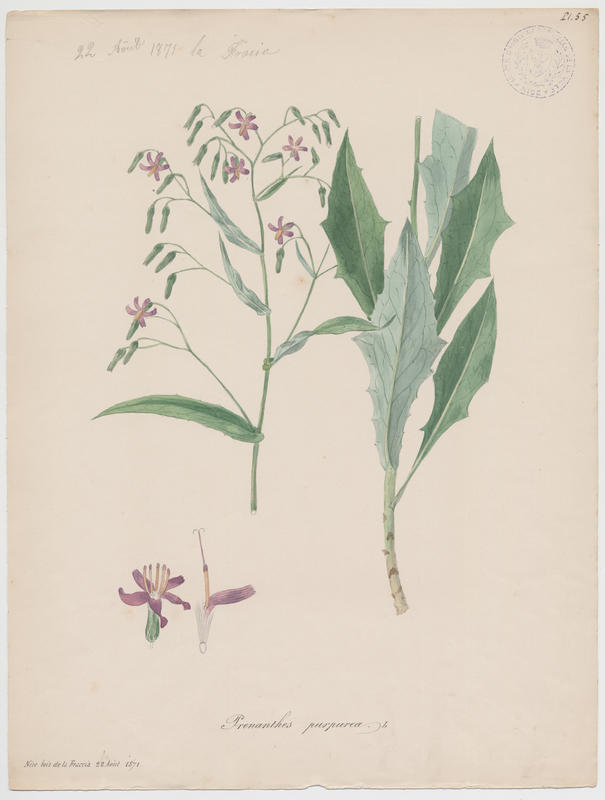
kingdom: Plantae
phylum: Tracheophyta
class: Magnoliopsida
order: Asterales
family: Asteraceae
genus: Prenanthes
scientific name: Prenanthes purpurea
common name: Purple lettuce
